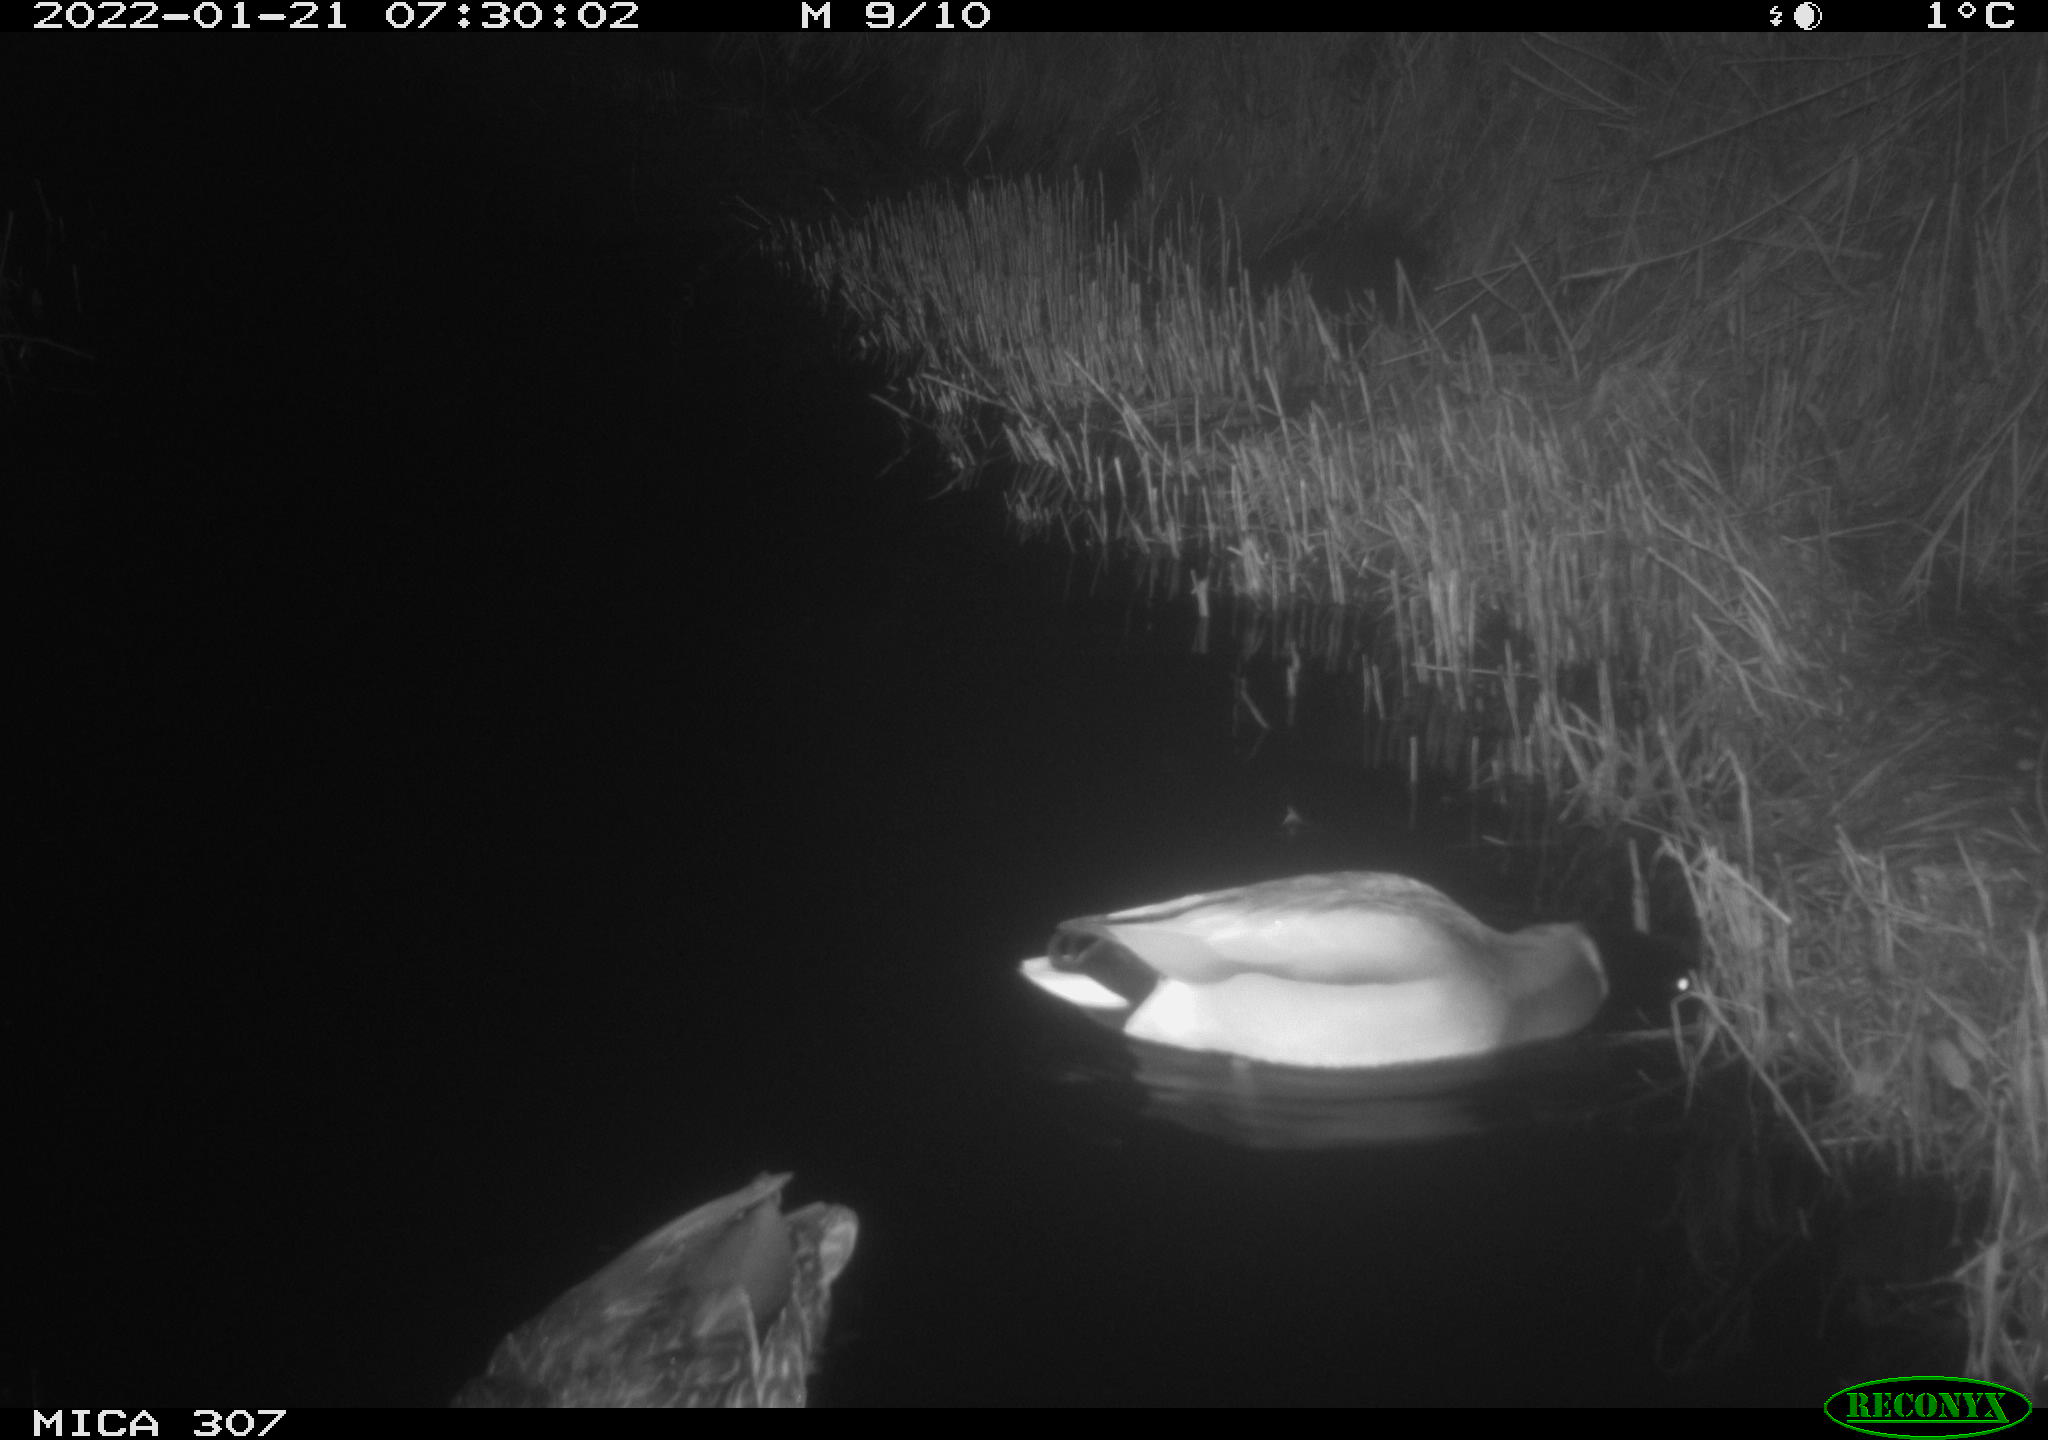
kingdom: Animalia
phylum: Chordata
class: Aves
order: Anseriformes
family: Anatidae
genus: Anas
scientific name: Anas
